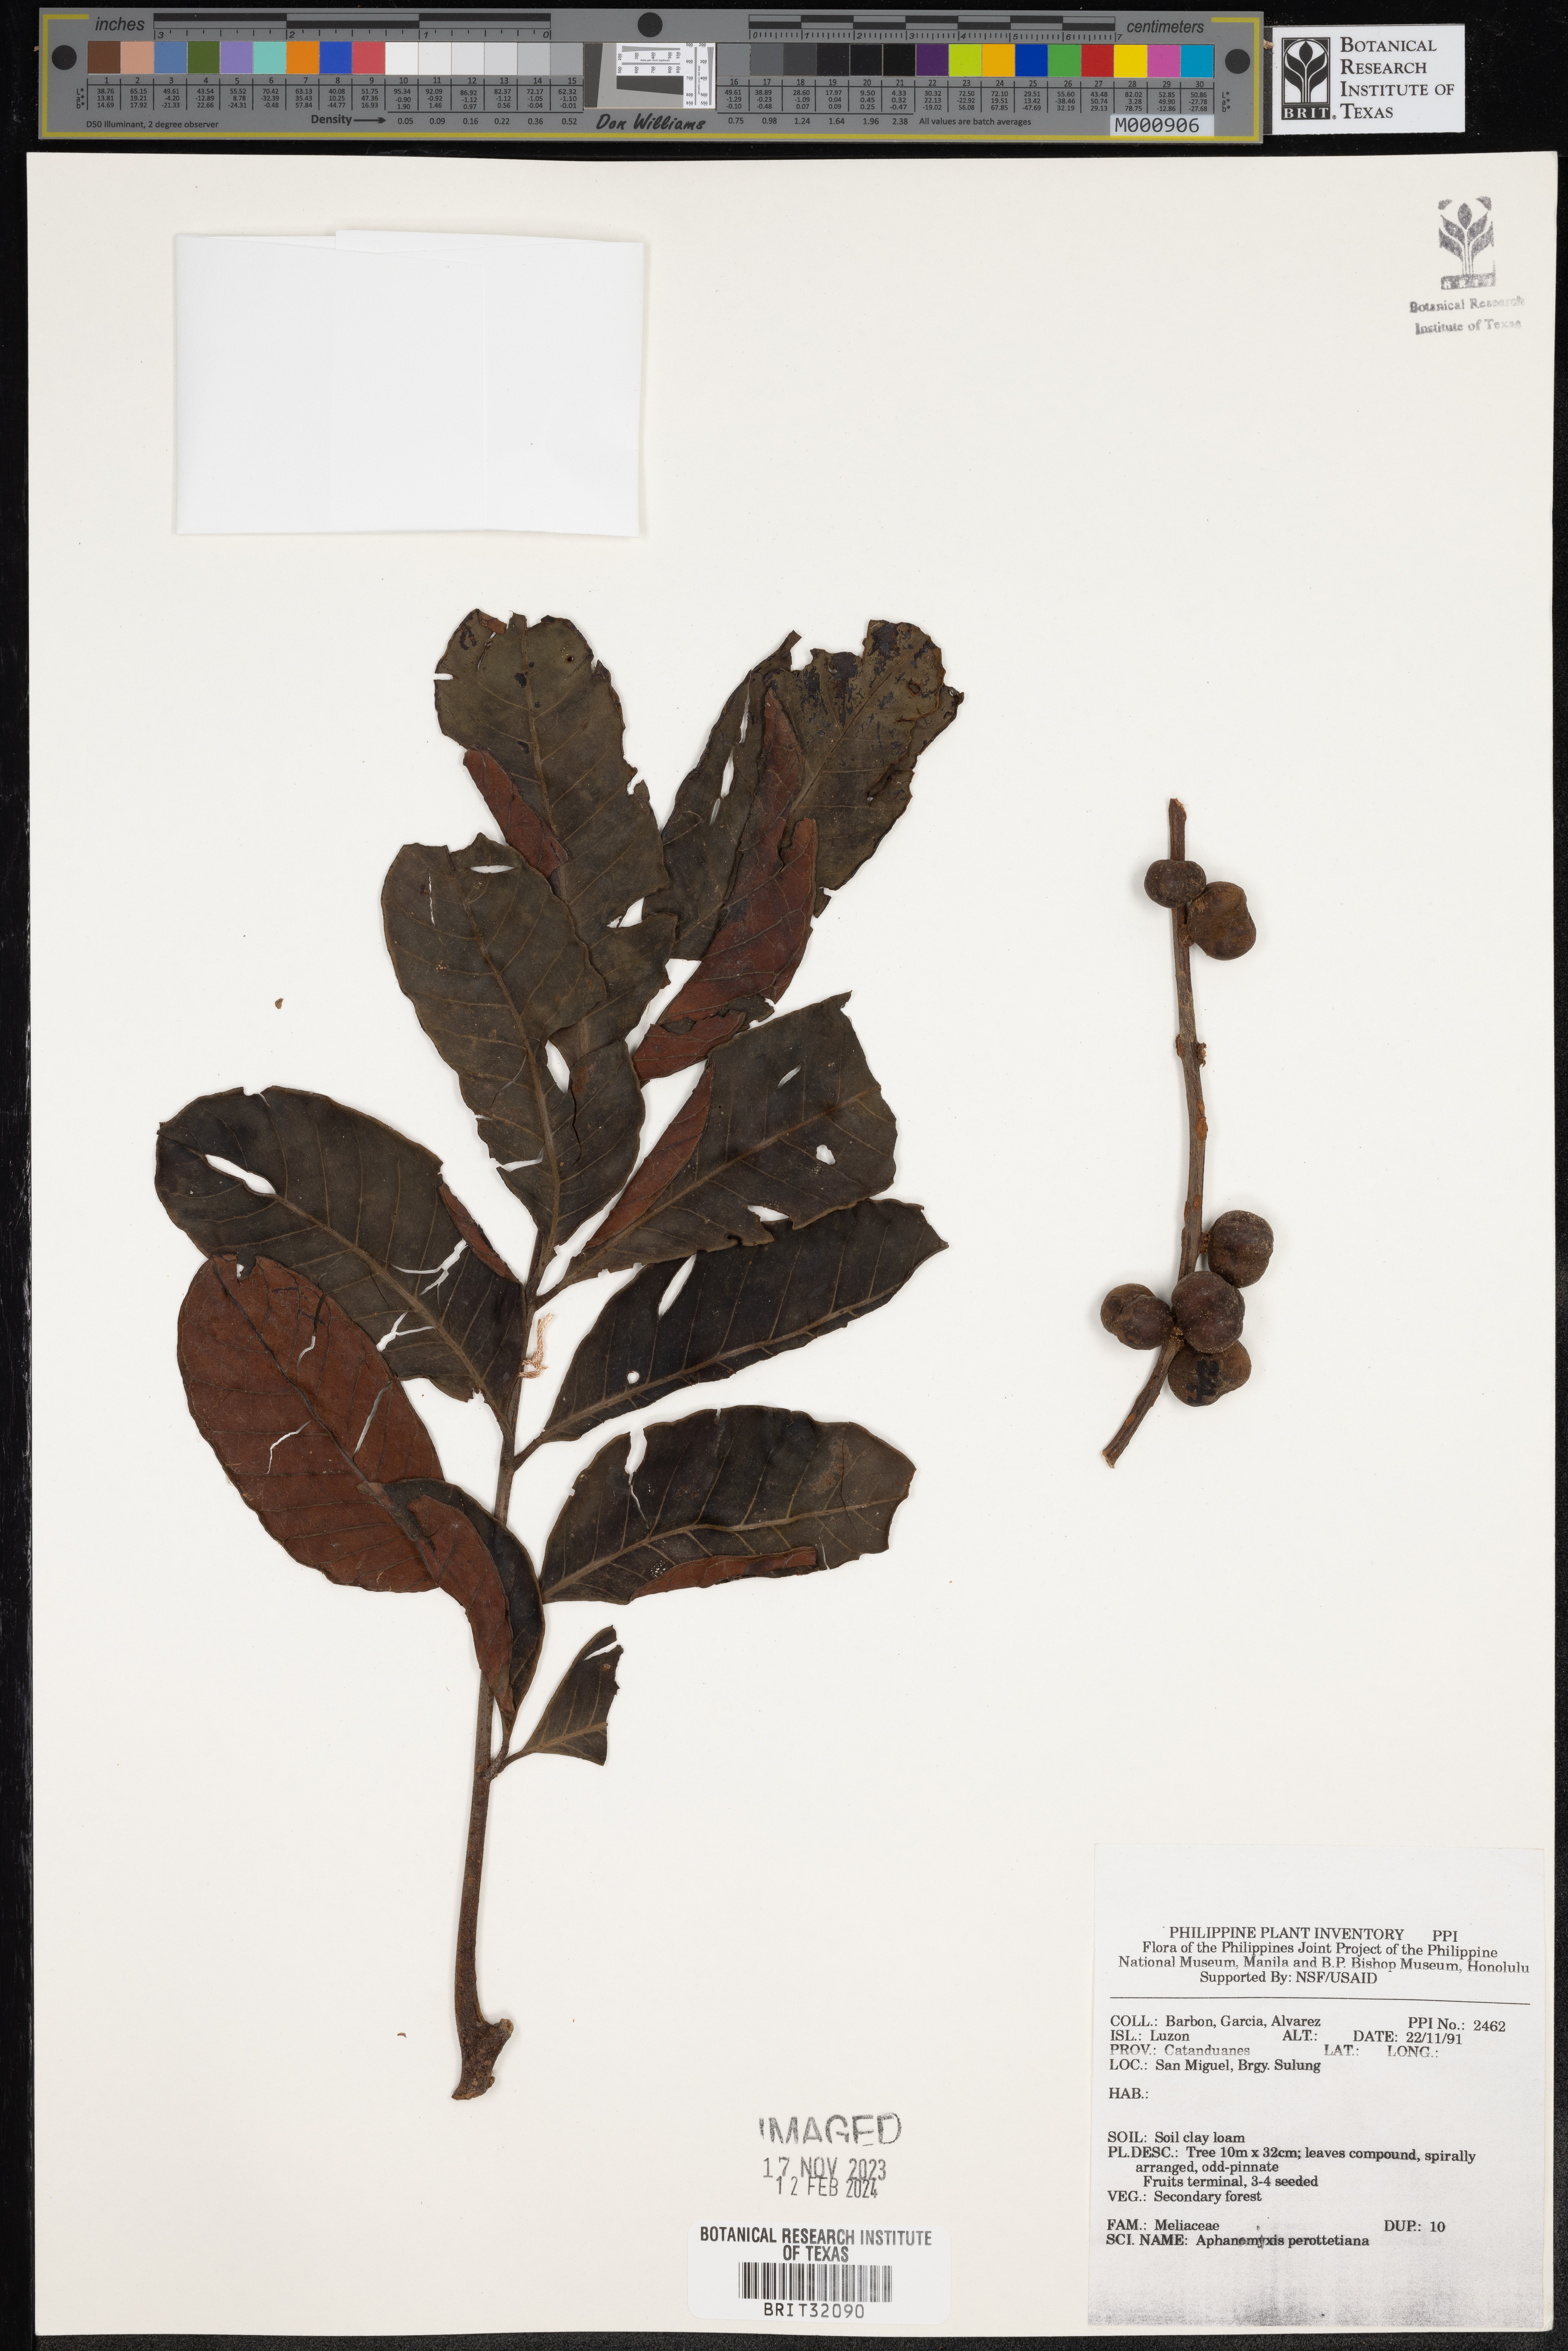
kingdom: Plantae
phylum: Tracheophyta
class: Magnoliopsida
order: Sapindales
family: Meliaceae
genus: Aphanamixis
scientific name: Aphanamixis polystachya
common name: Pithraj tree
